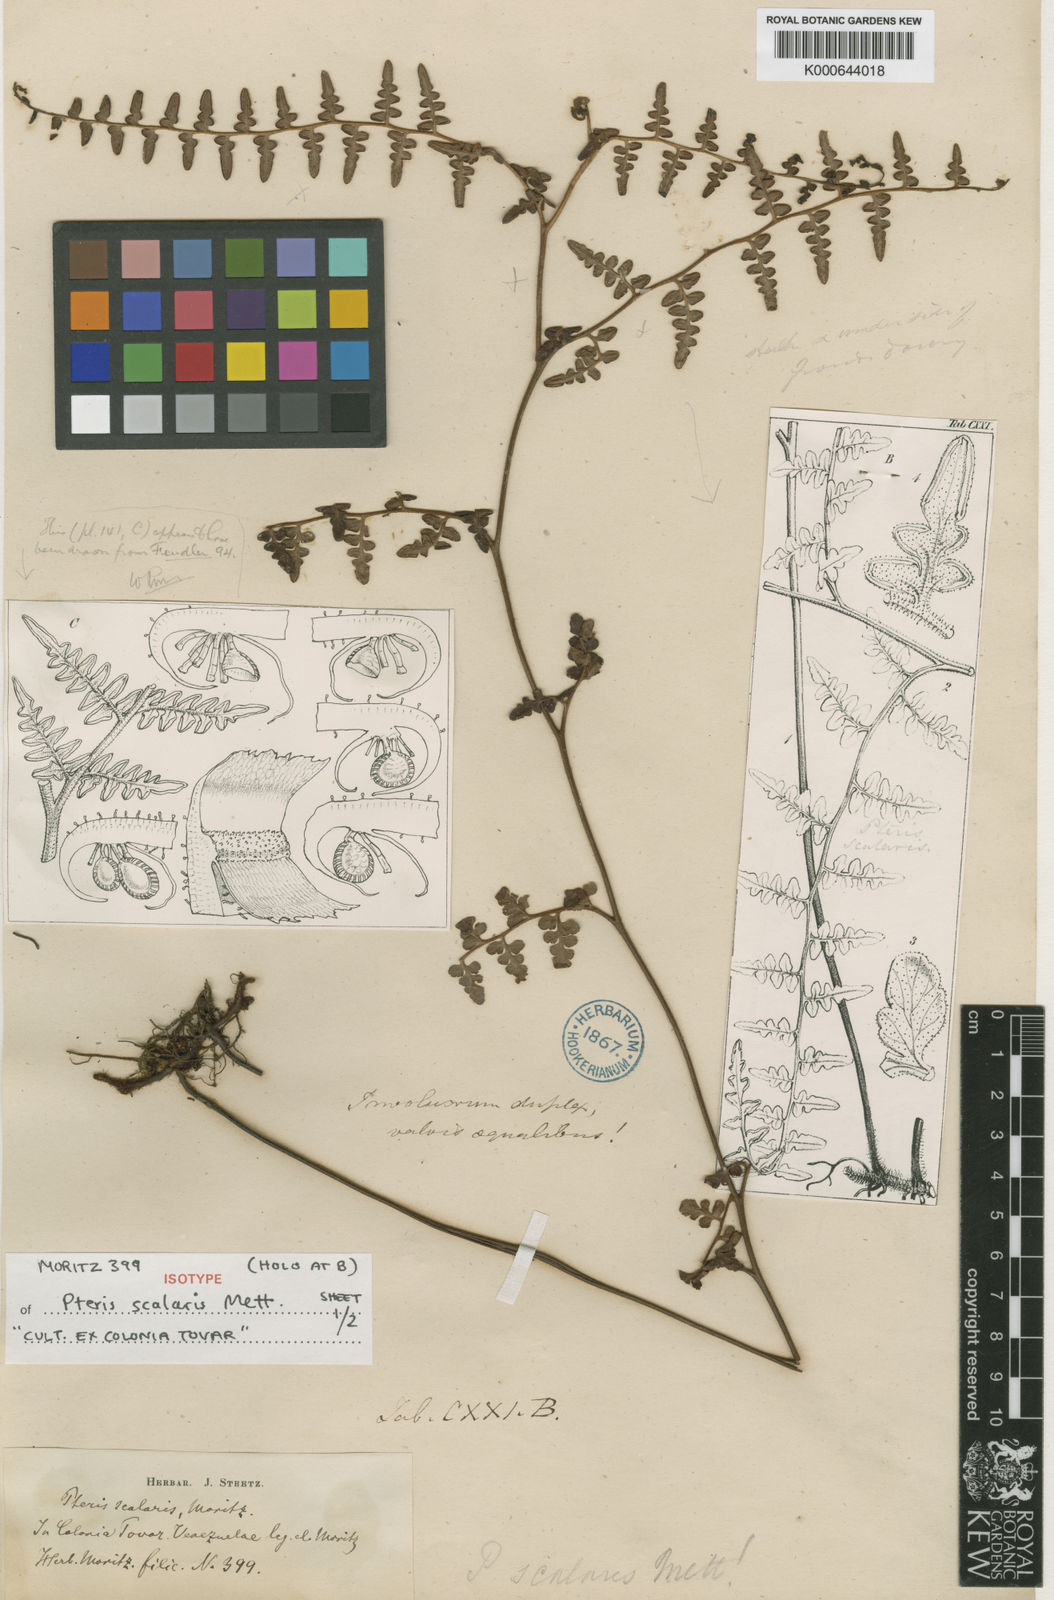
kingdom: Plantae
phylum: Tracheophyta
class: Polypodiopsida
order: Polypodiales
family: Dennstaedtiaceae
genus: Paesia
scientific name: Paesia glandulosa
